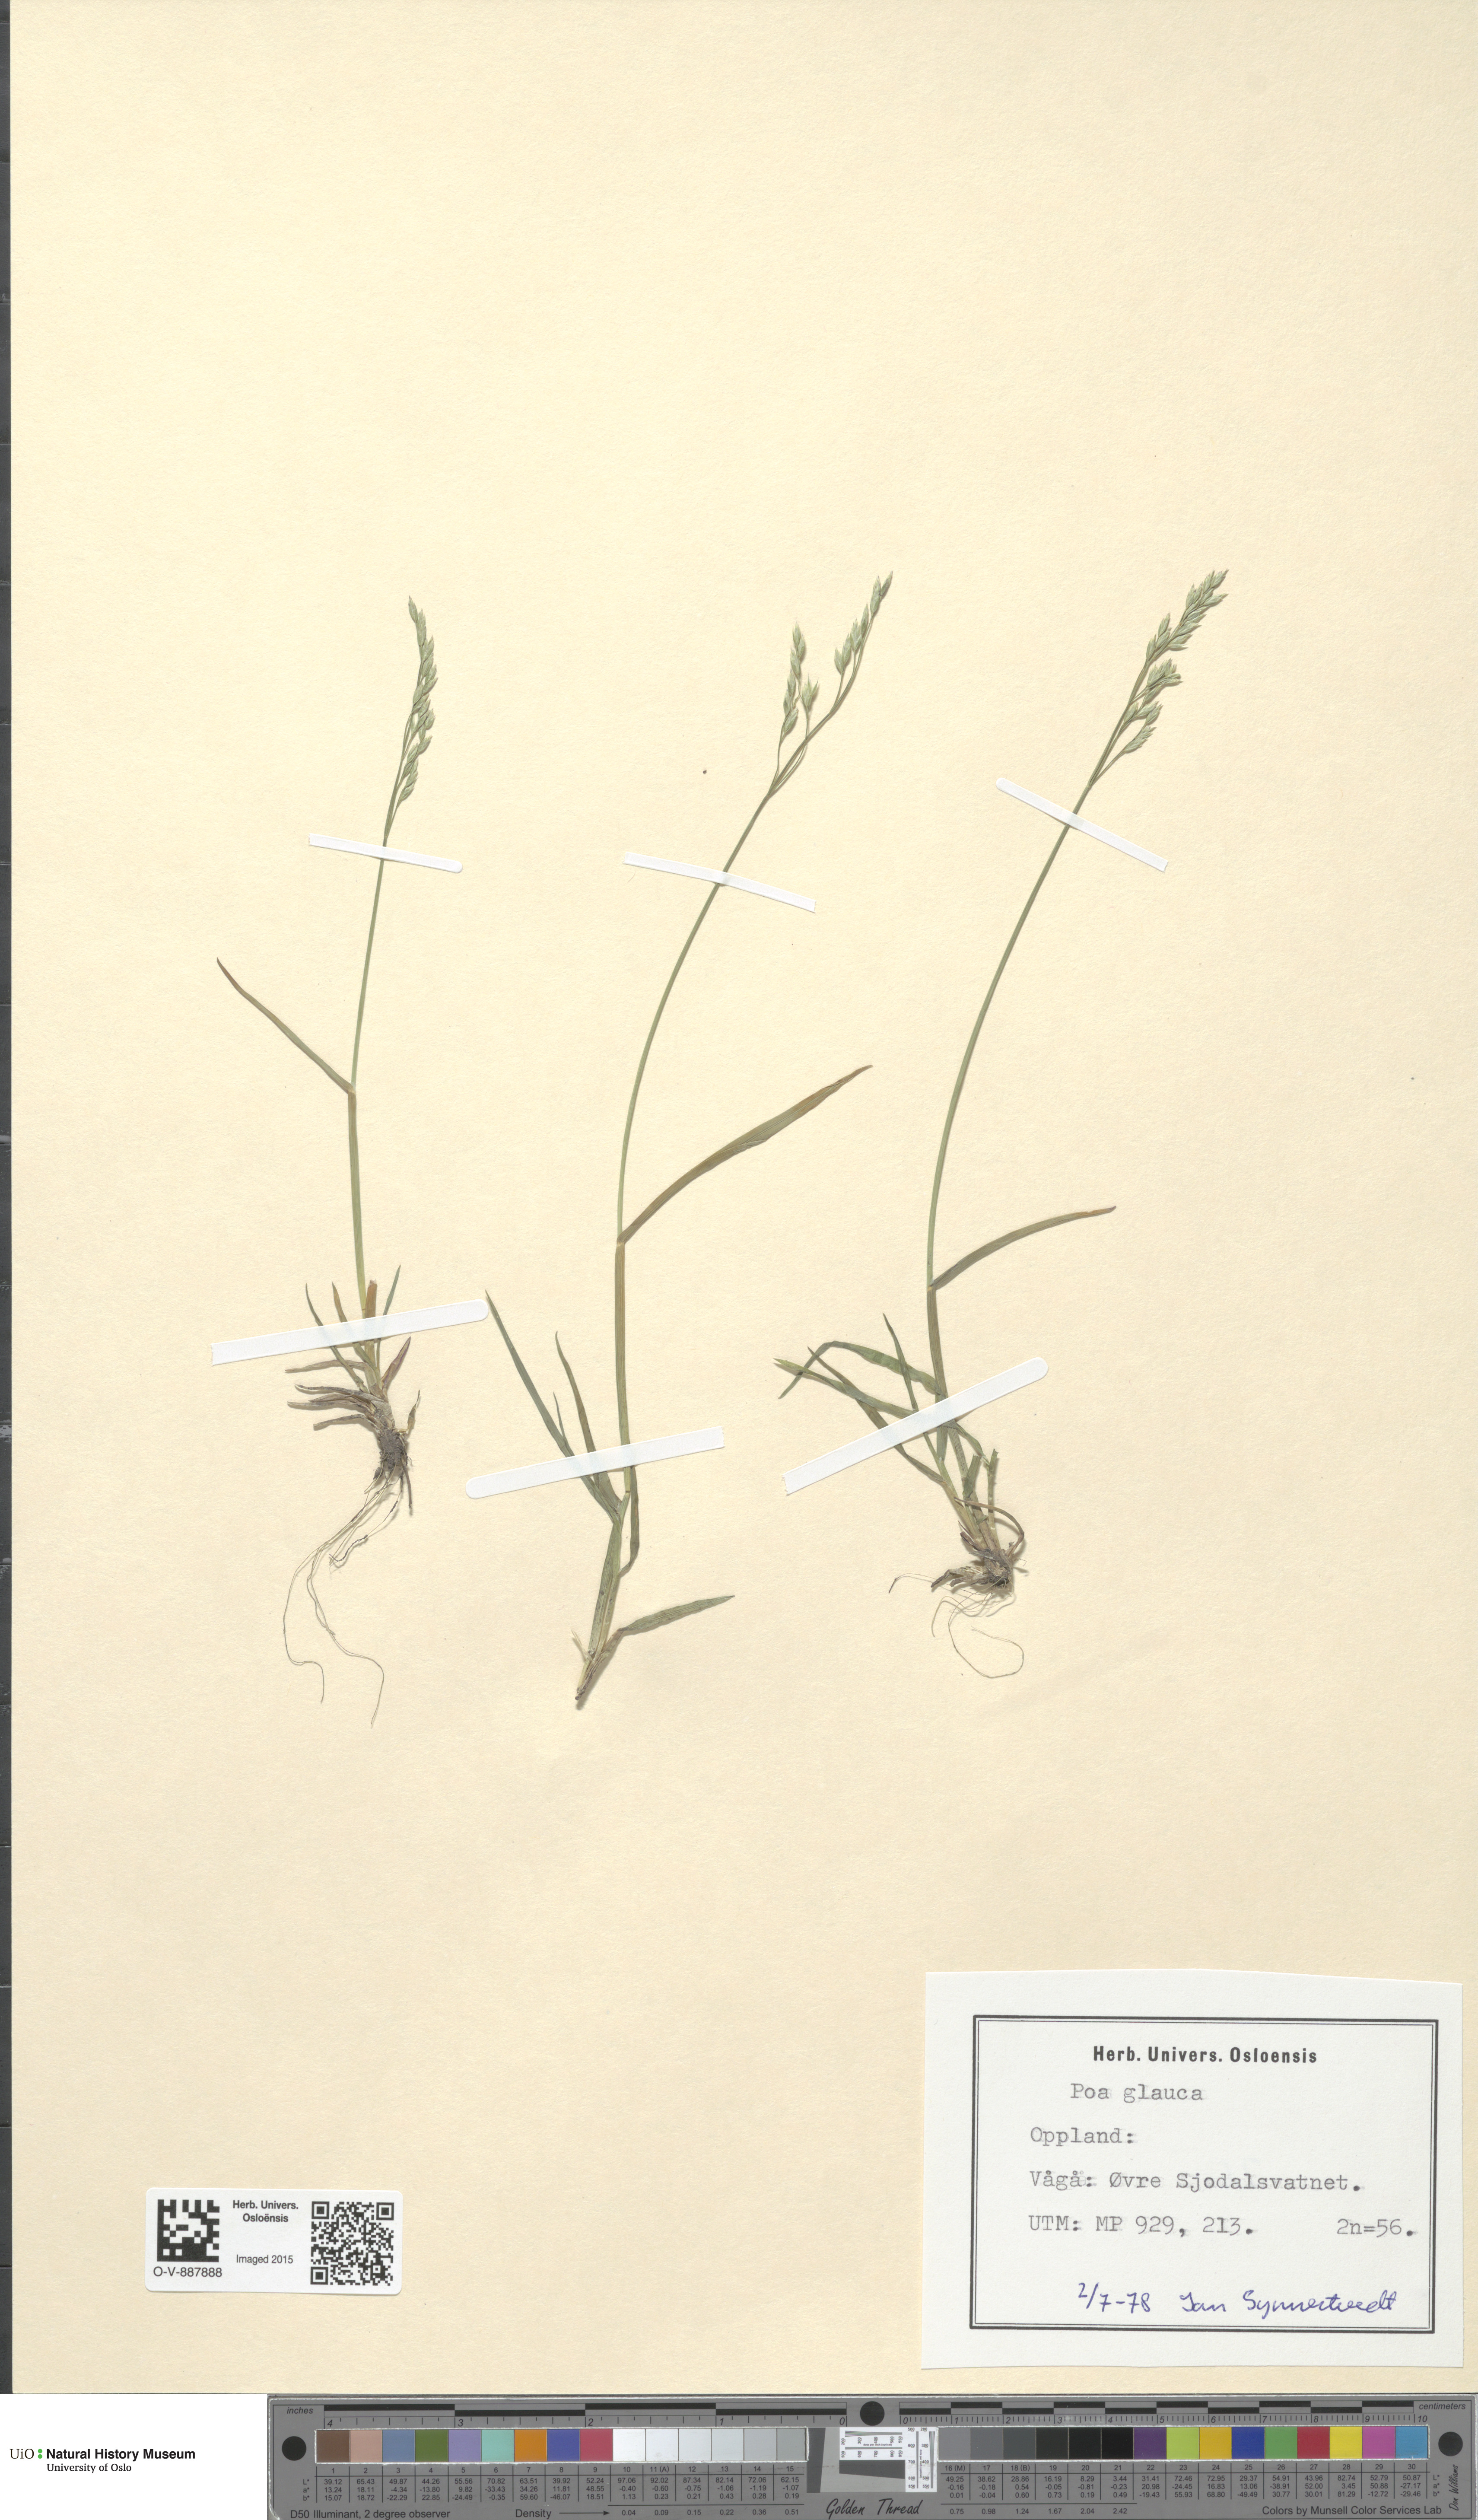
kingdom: Plantae
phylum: Tracheophyta
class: Liliopsida
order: Poales
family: Poaceae
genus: Poa
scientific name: Poa glauca
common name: Glaucous bluegrass
